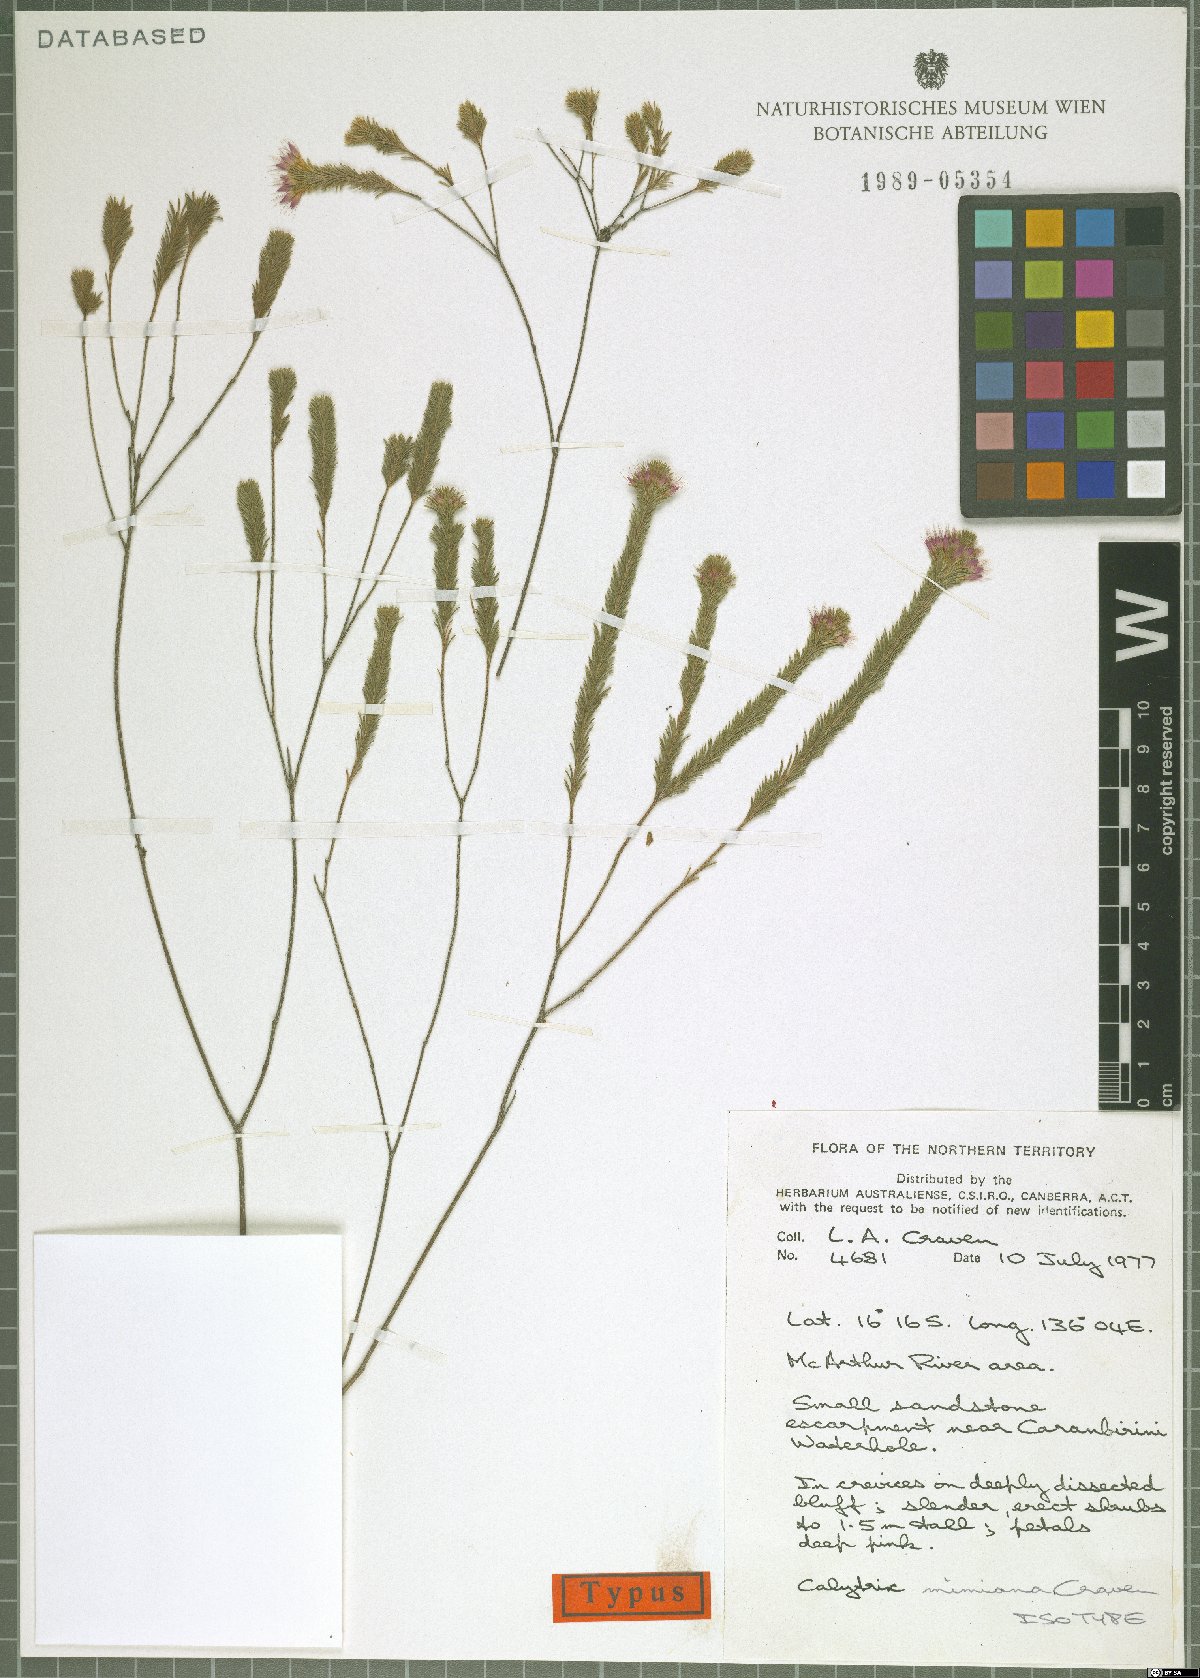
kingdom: Plantae
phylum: Tracheophyta
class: Magnoliopsida
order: Myrtales
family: Myrtaceae
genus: Calytrix
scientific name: Calytrix mimiana
